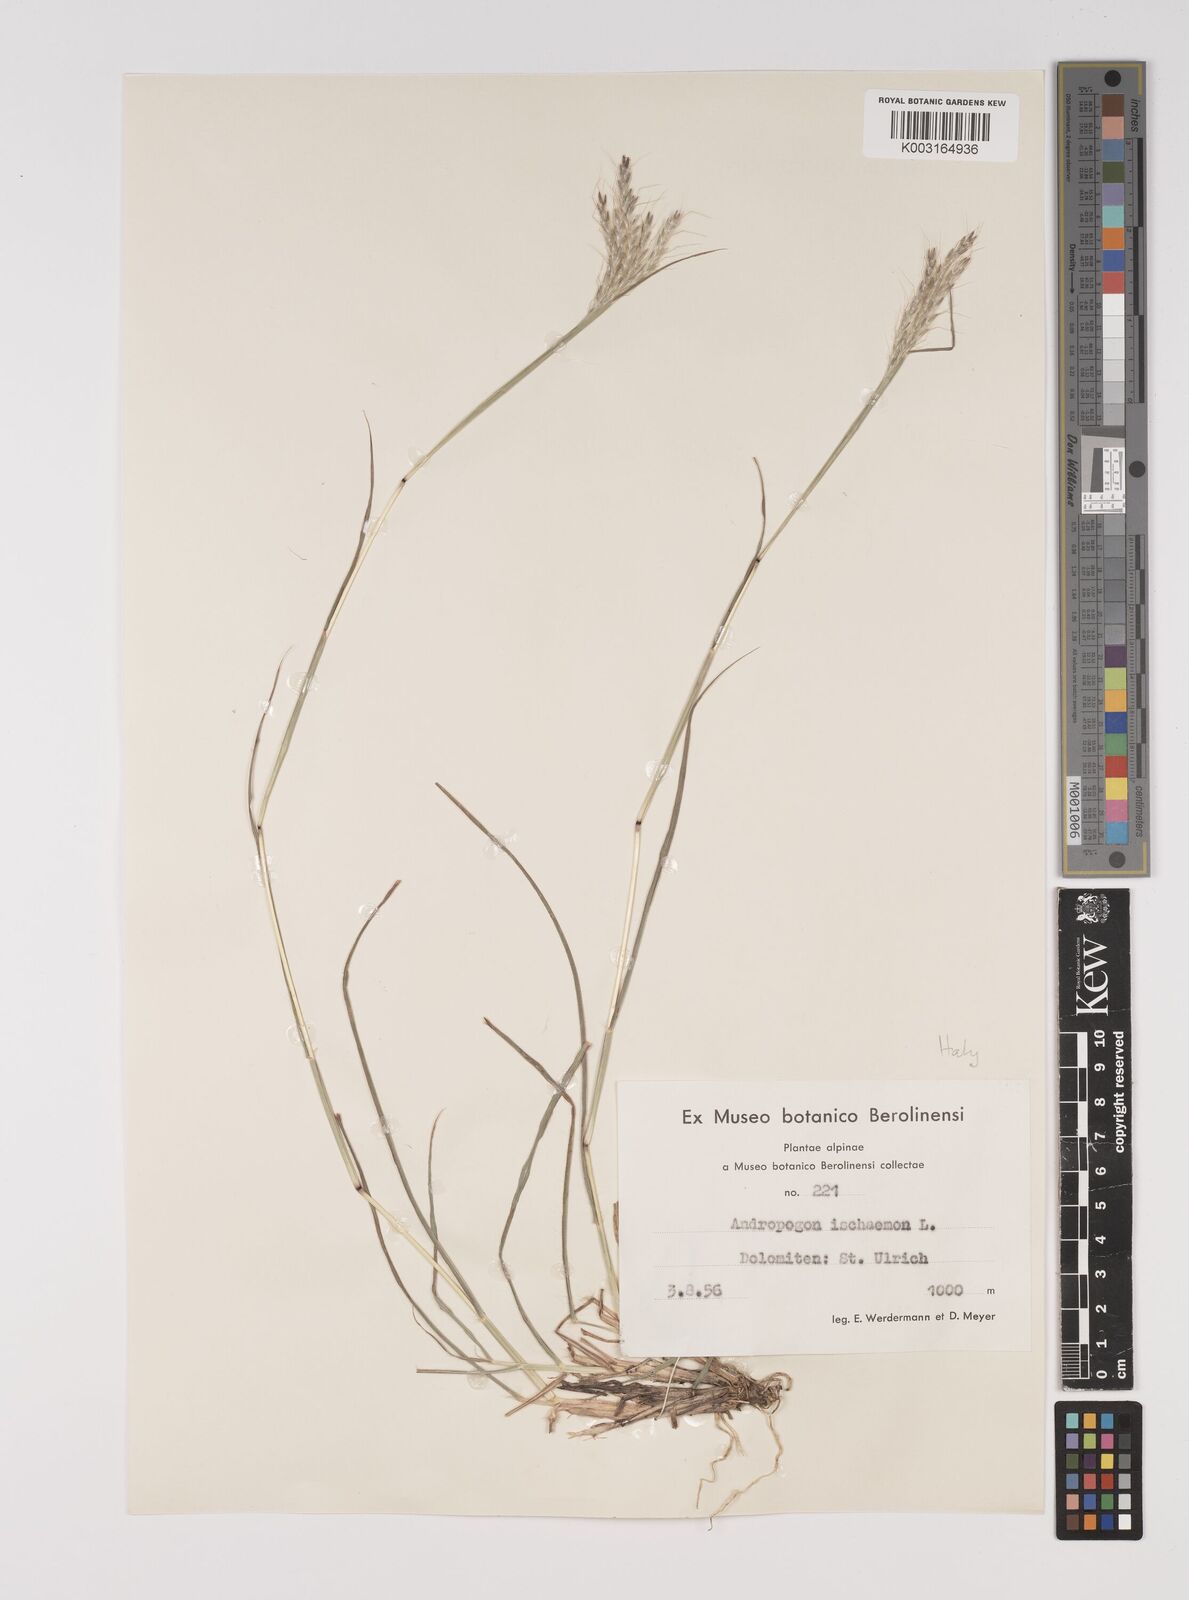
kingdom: Plantae
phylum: Tracheophyta
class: Liliopsida
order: Poales
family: Poaceae
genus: Bothriochloa
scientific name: Bothriochloa ischaemum
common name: Yellow bluestem
